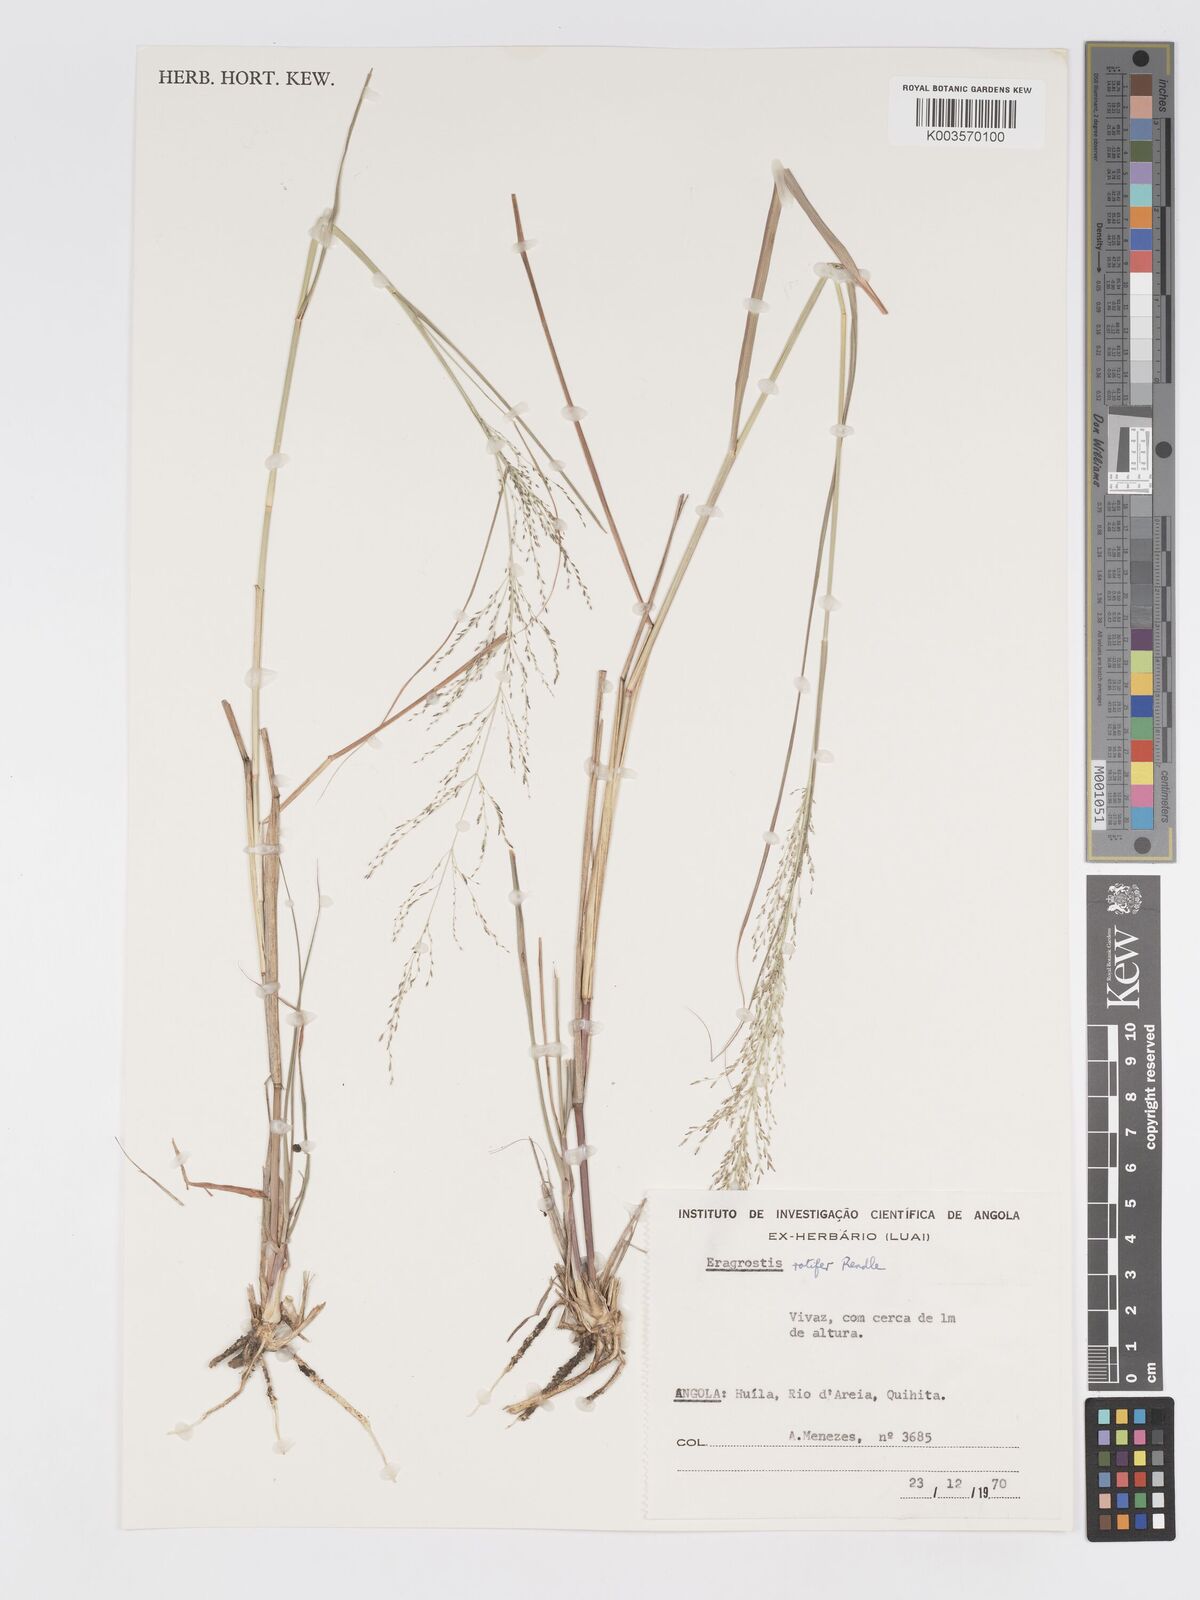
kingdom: Plantae
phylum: Tracheophyta
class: Liliopsida
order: Poales
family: Poaceae
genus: Eragrostis
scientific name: Eragrostis rotifer
